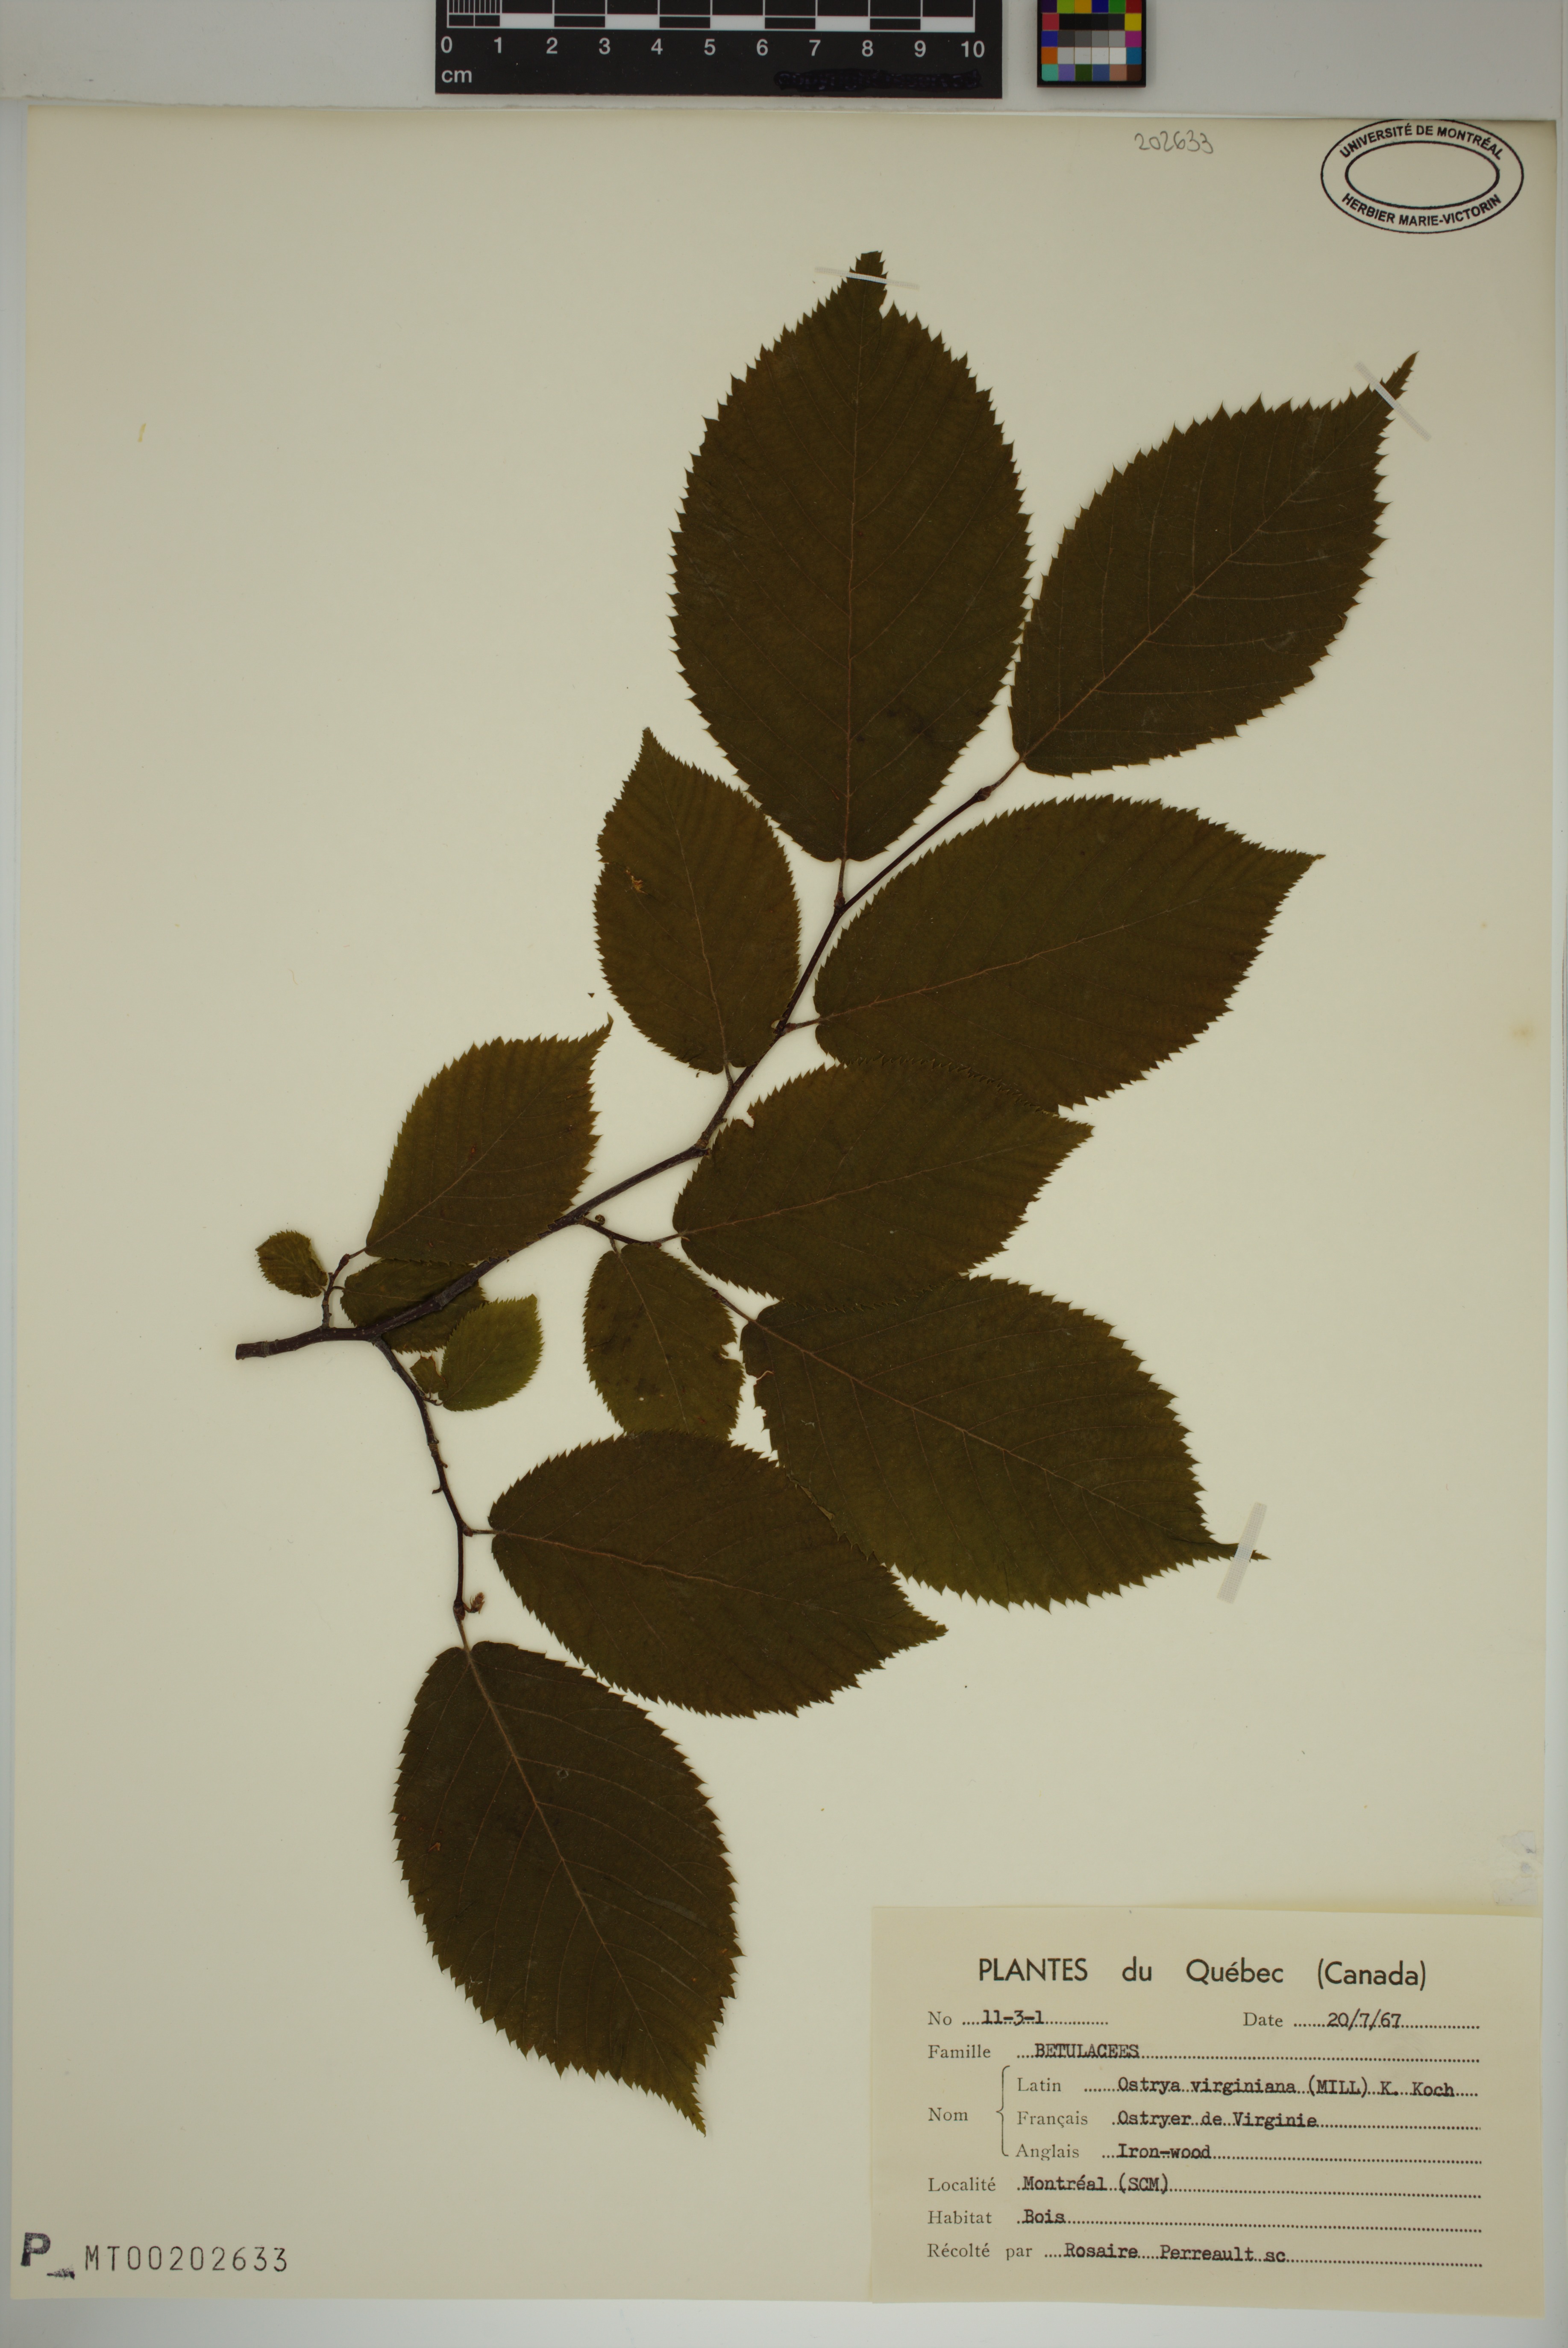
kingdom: Plantae
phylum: Tracheophyta
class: Magnoliopsida
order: Fagales
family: Betulaceae
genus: Ostrya
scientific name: Ostrya virginiana
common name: Ironwood
